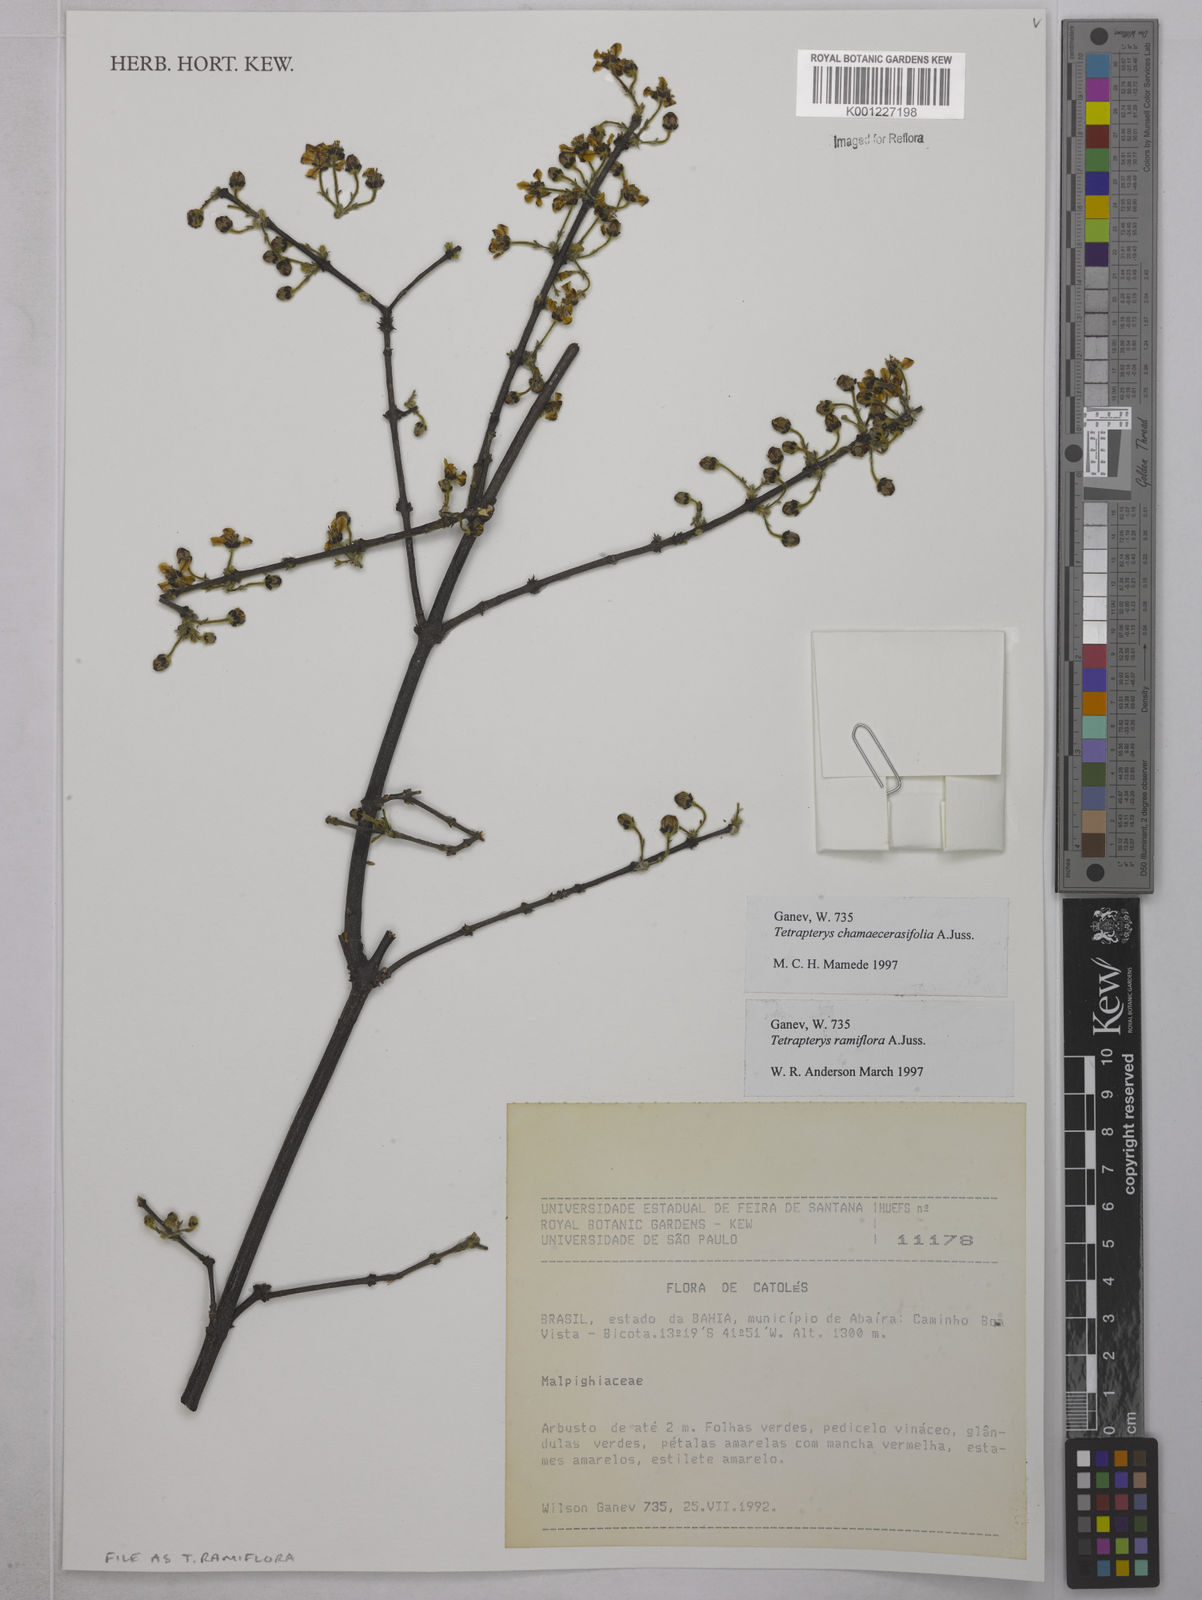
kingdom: Plantae
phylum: Tracheophyta
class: Magnoliopsida
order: Malpighiales
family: Malpighiaceae
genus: Glicophyllum
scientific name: Glicophyllum ramiflorum
